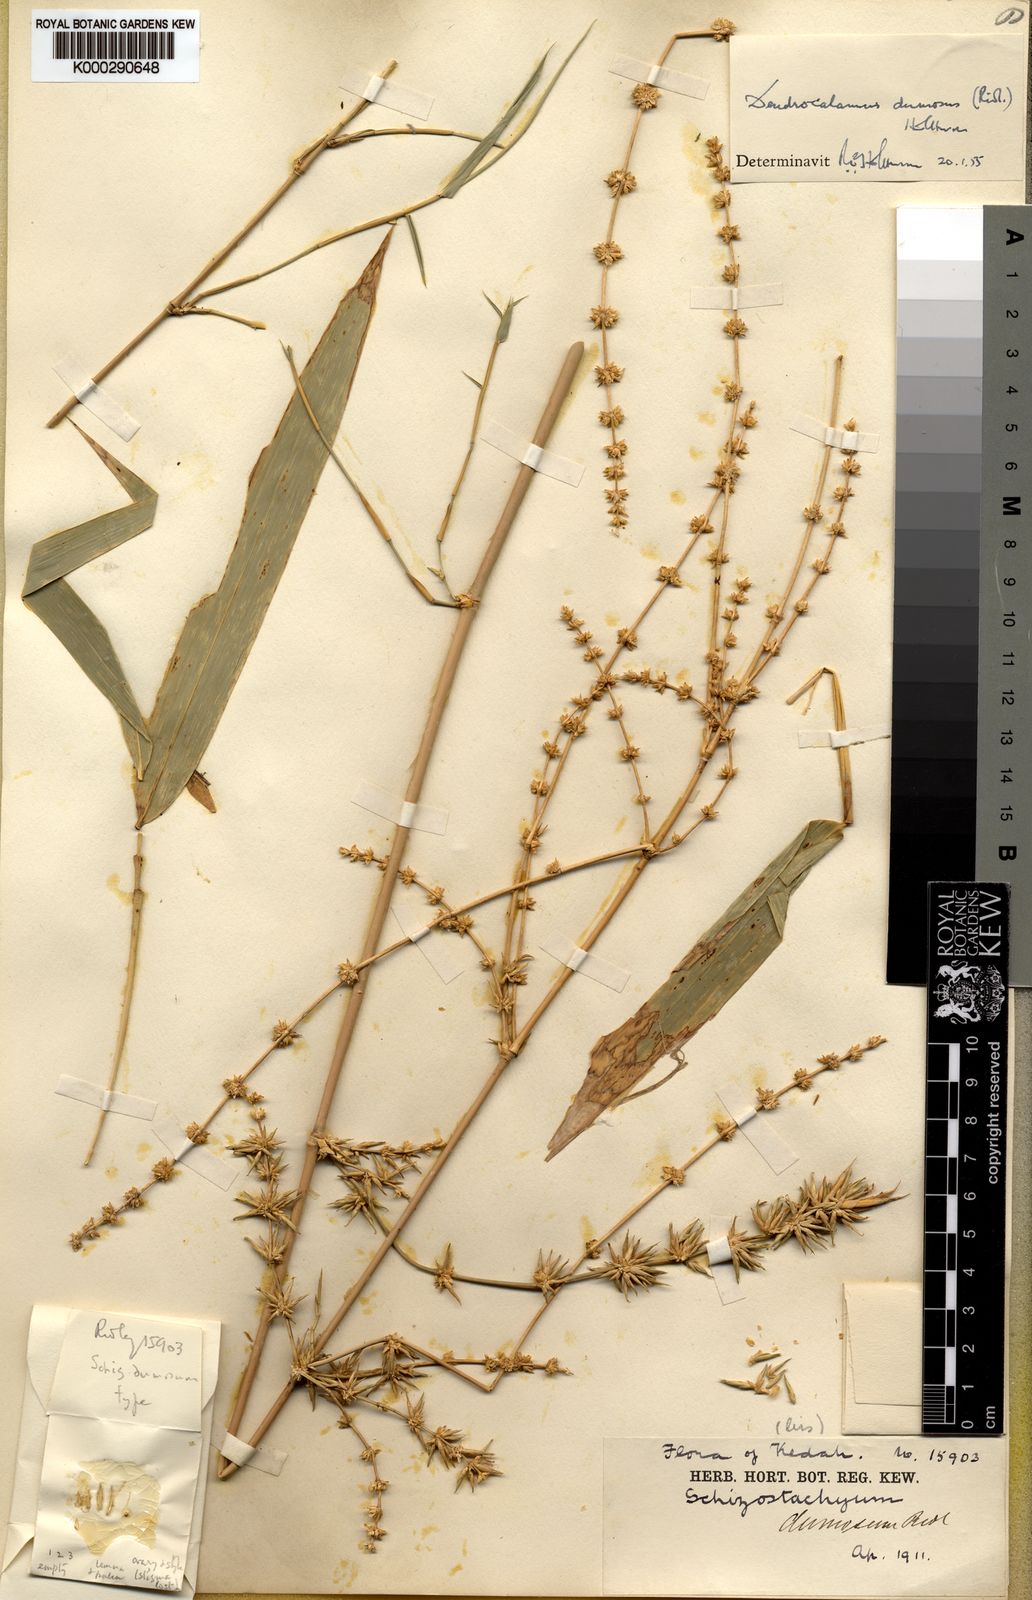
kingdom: Plantae
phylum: Tracheophyta
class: Liliopsida
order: Poales
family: Poaceae
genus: Dendrocalamus
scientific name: Dendrocalamus dumosus
